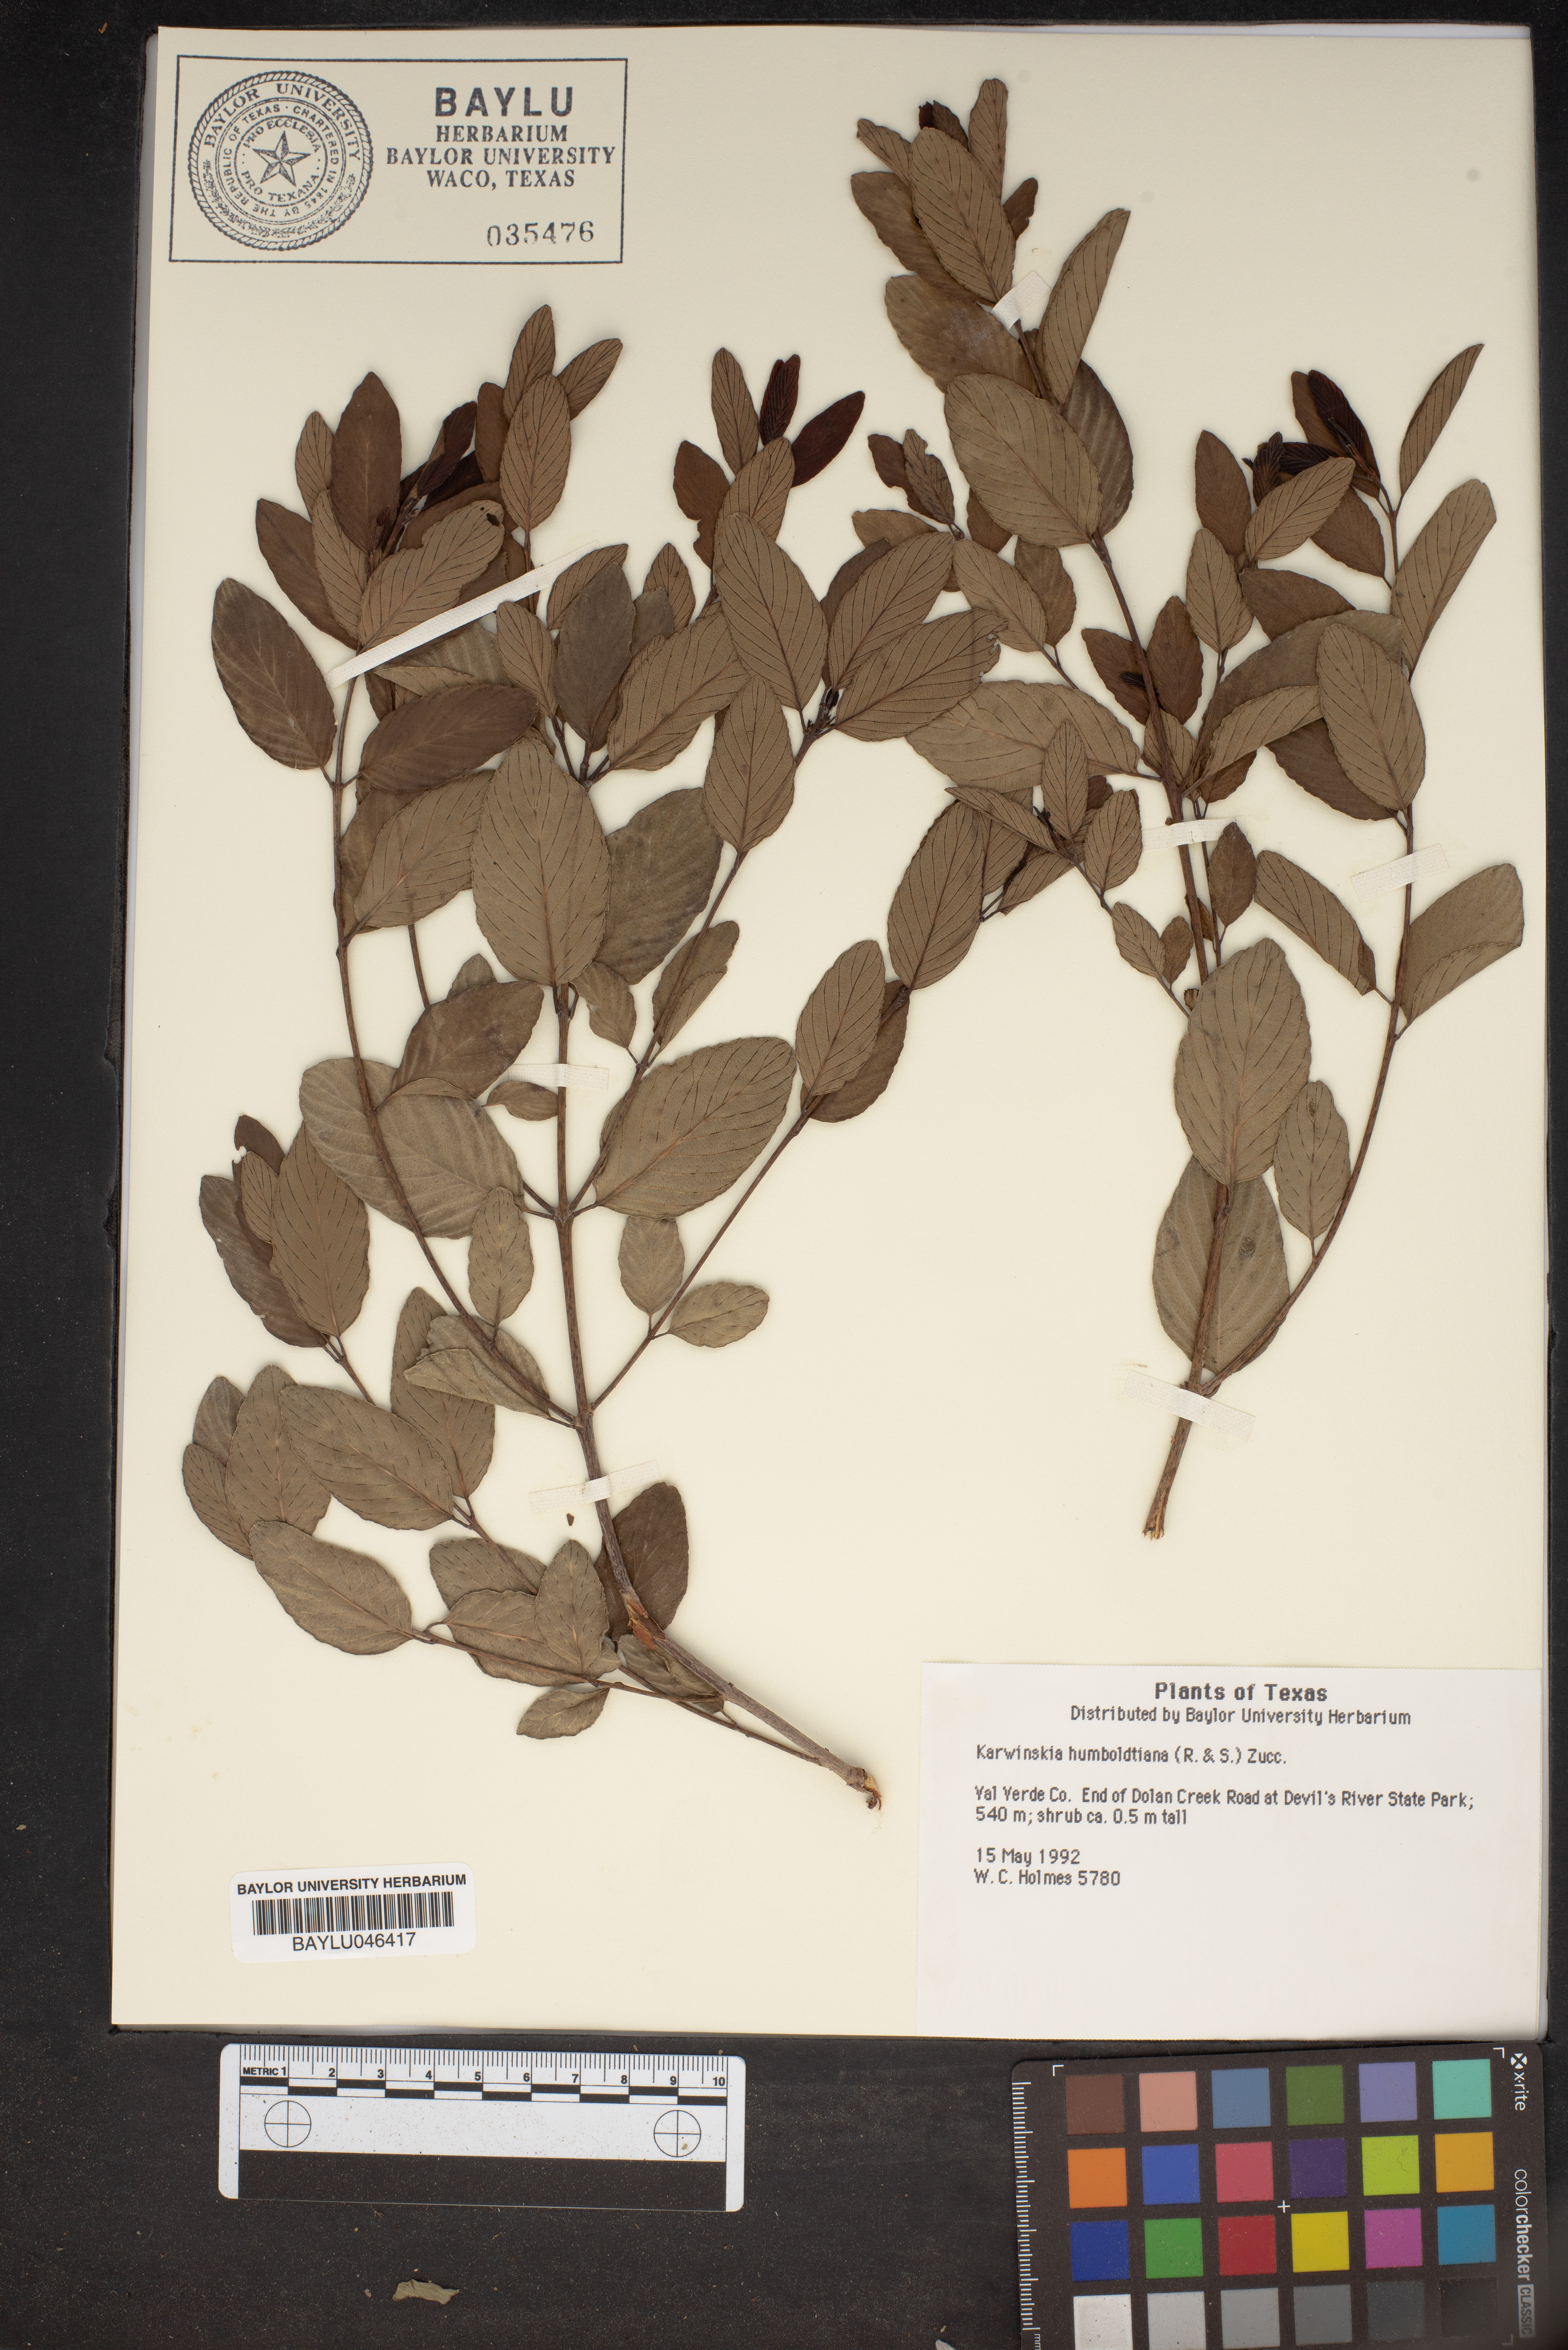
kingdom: Plantae
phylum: Tracheophyta
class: Magnoliopsida
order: Rosales
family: Rhamnaceae
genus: Karwinskia
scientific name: Karwinskia humboldtiana
